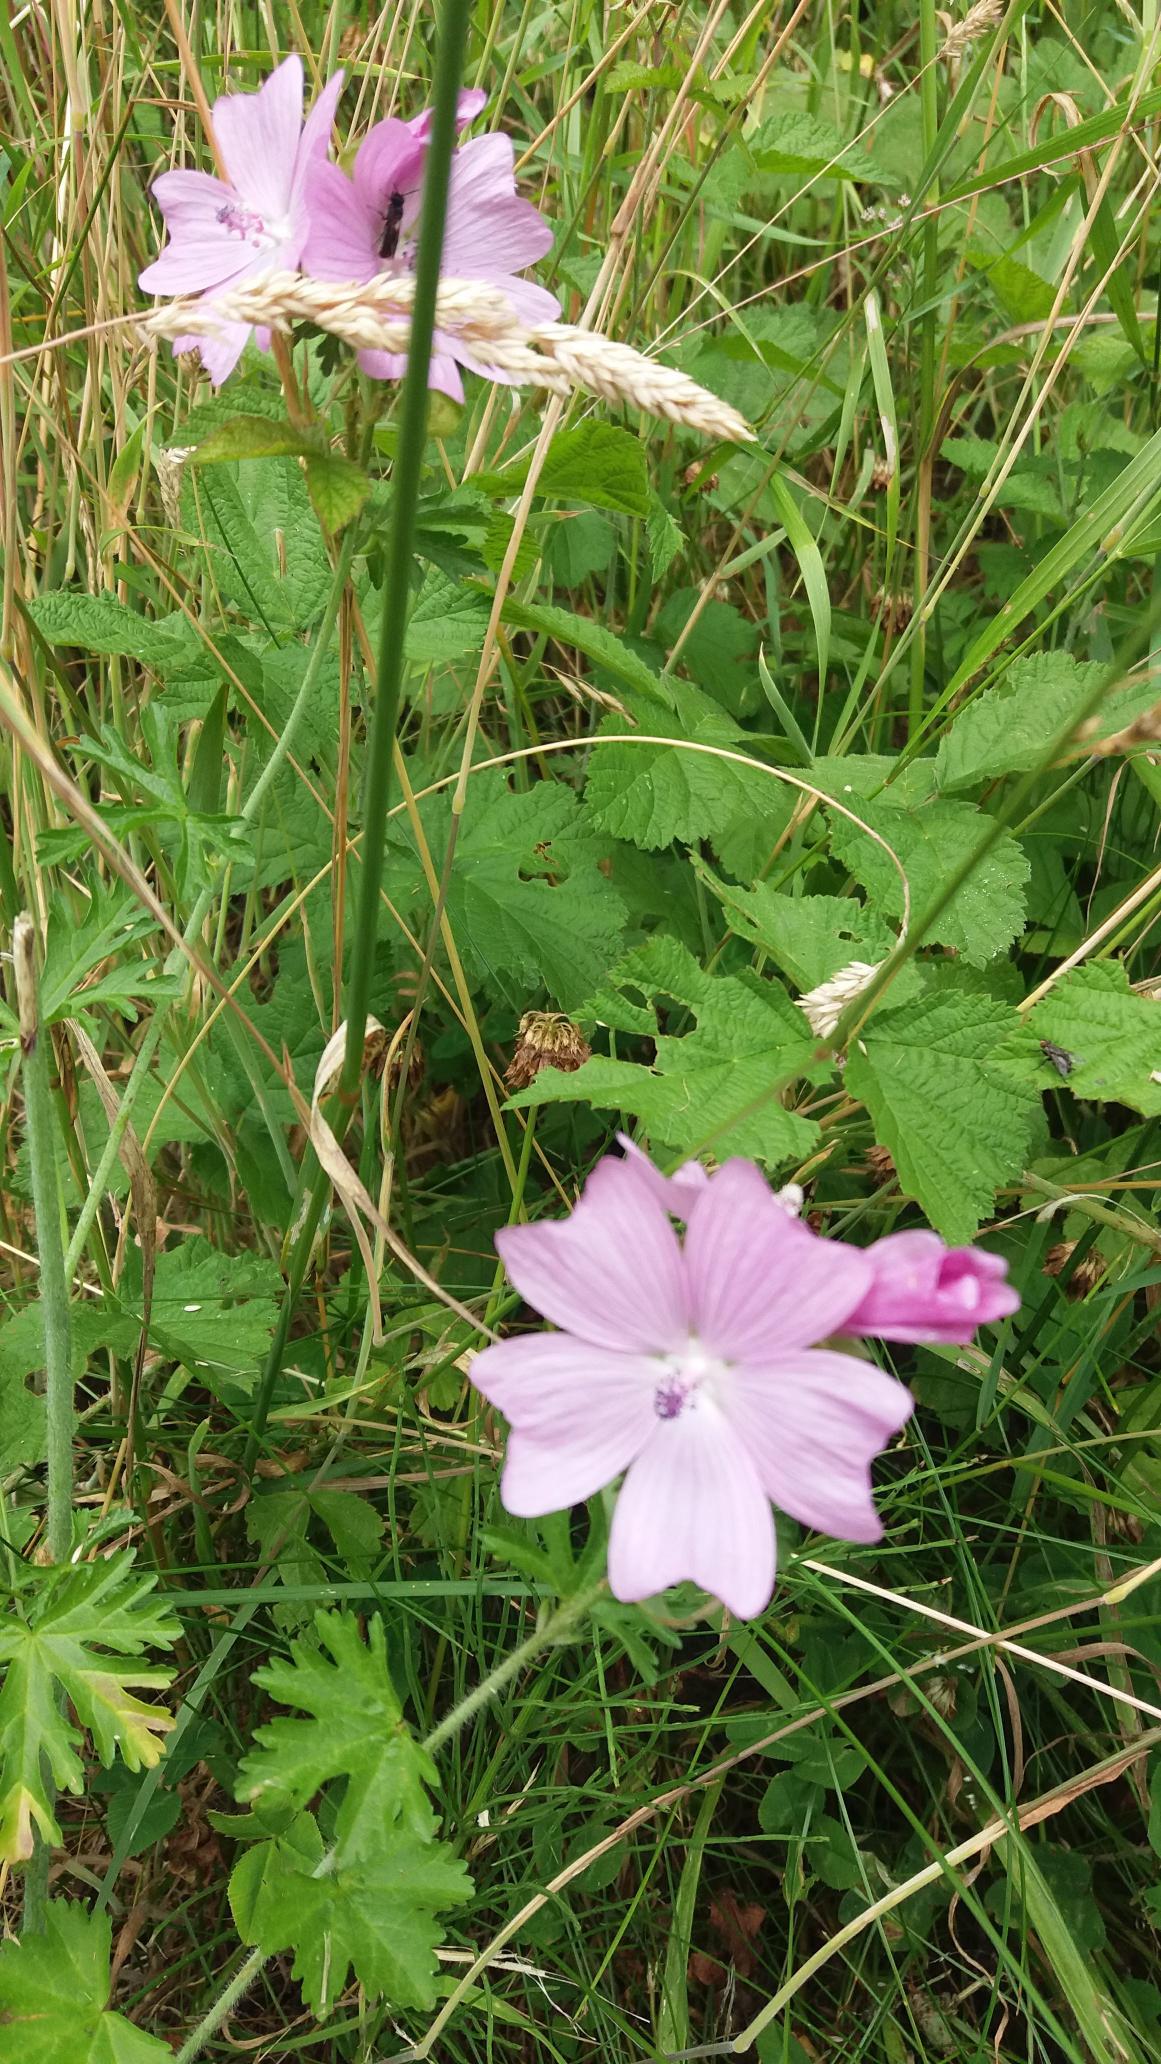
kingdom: Plantae
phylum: Tracheophyta
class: Magnoliopsida
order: Malvales
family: Malvaceae
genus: Malva
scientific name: Malva moschata
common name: Moskus-katost
